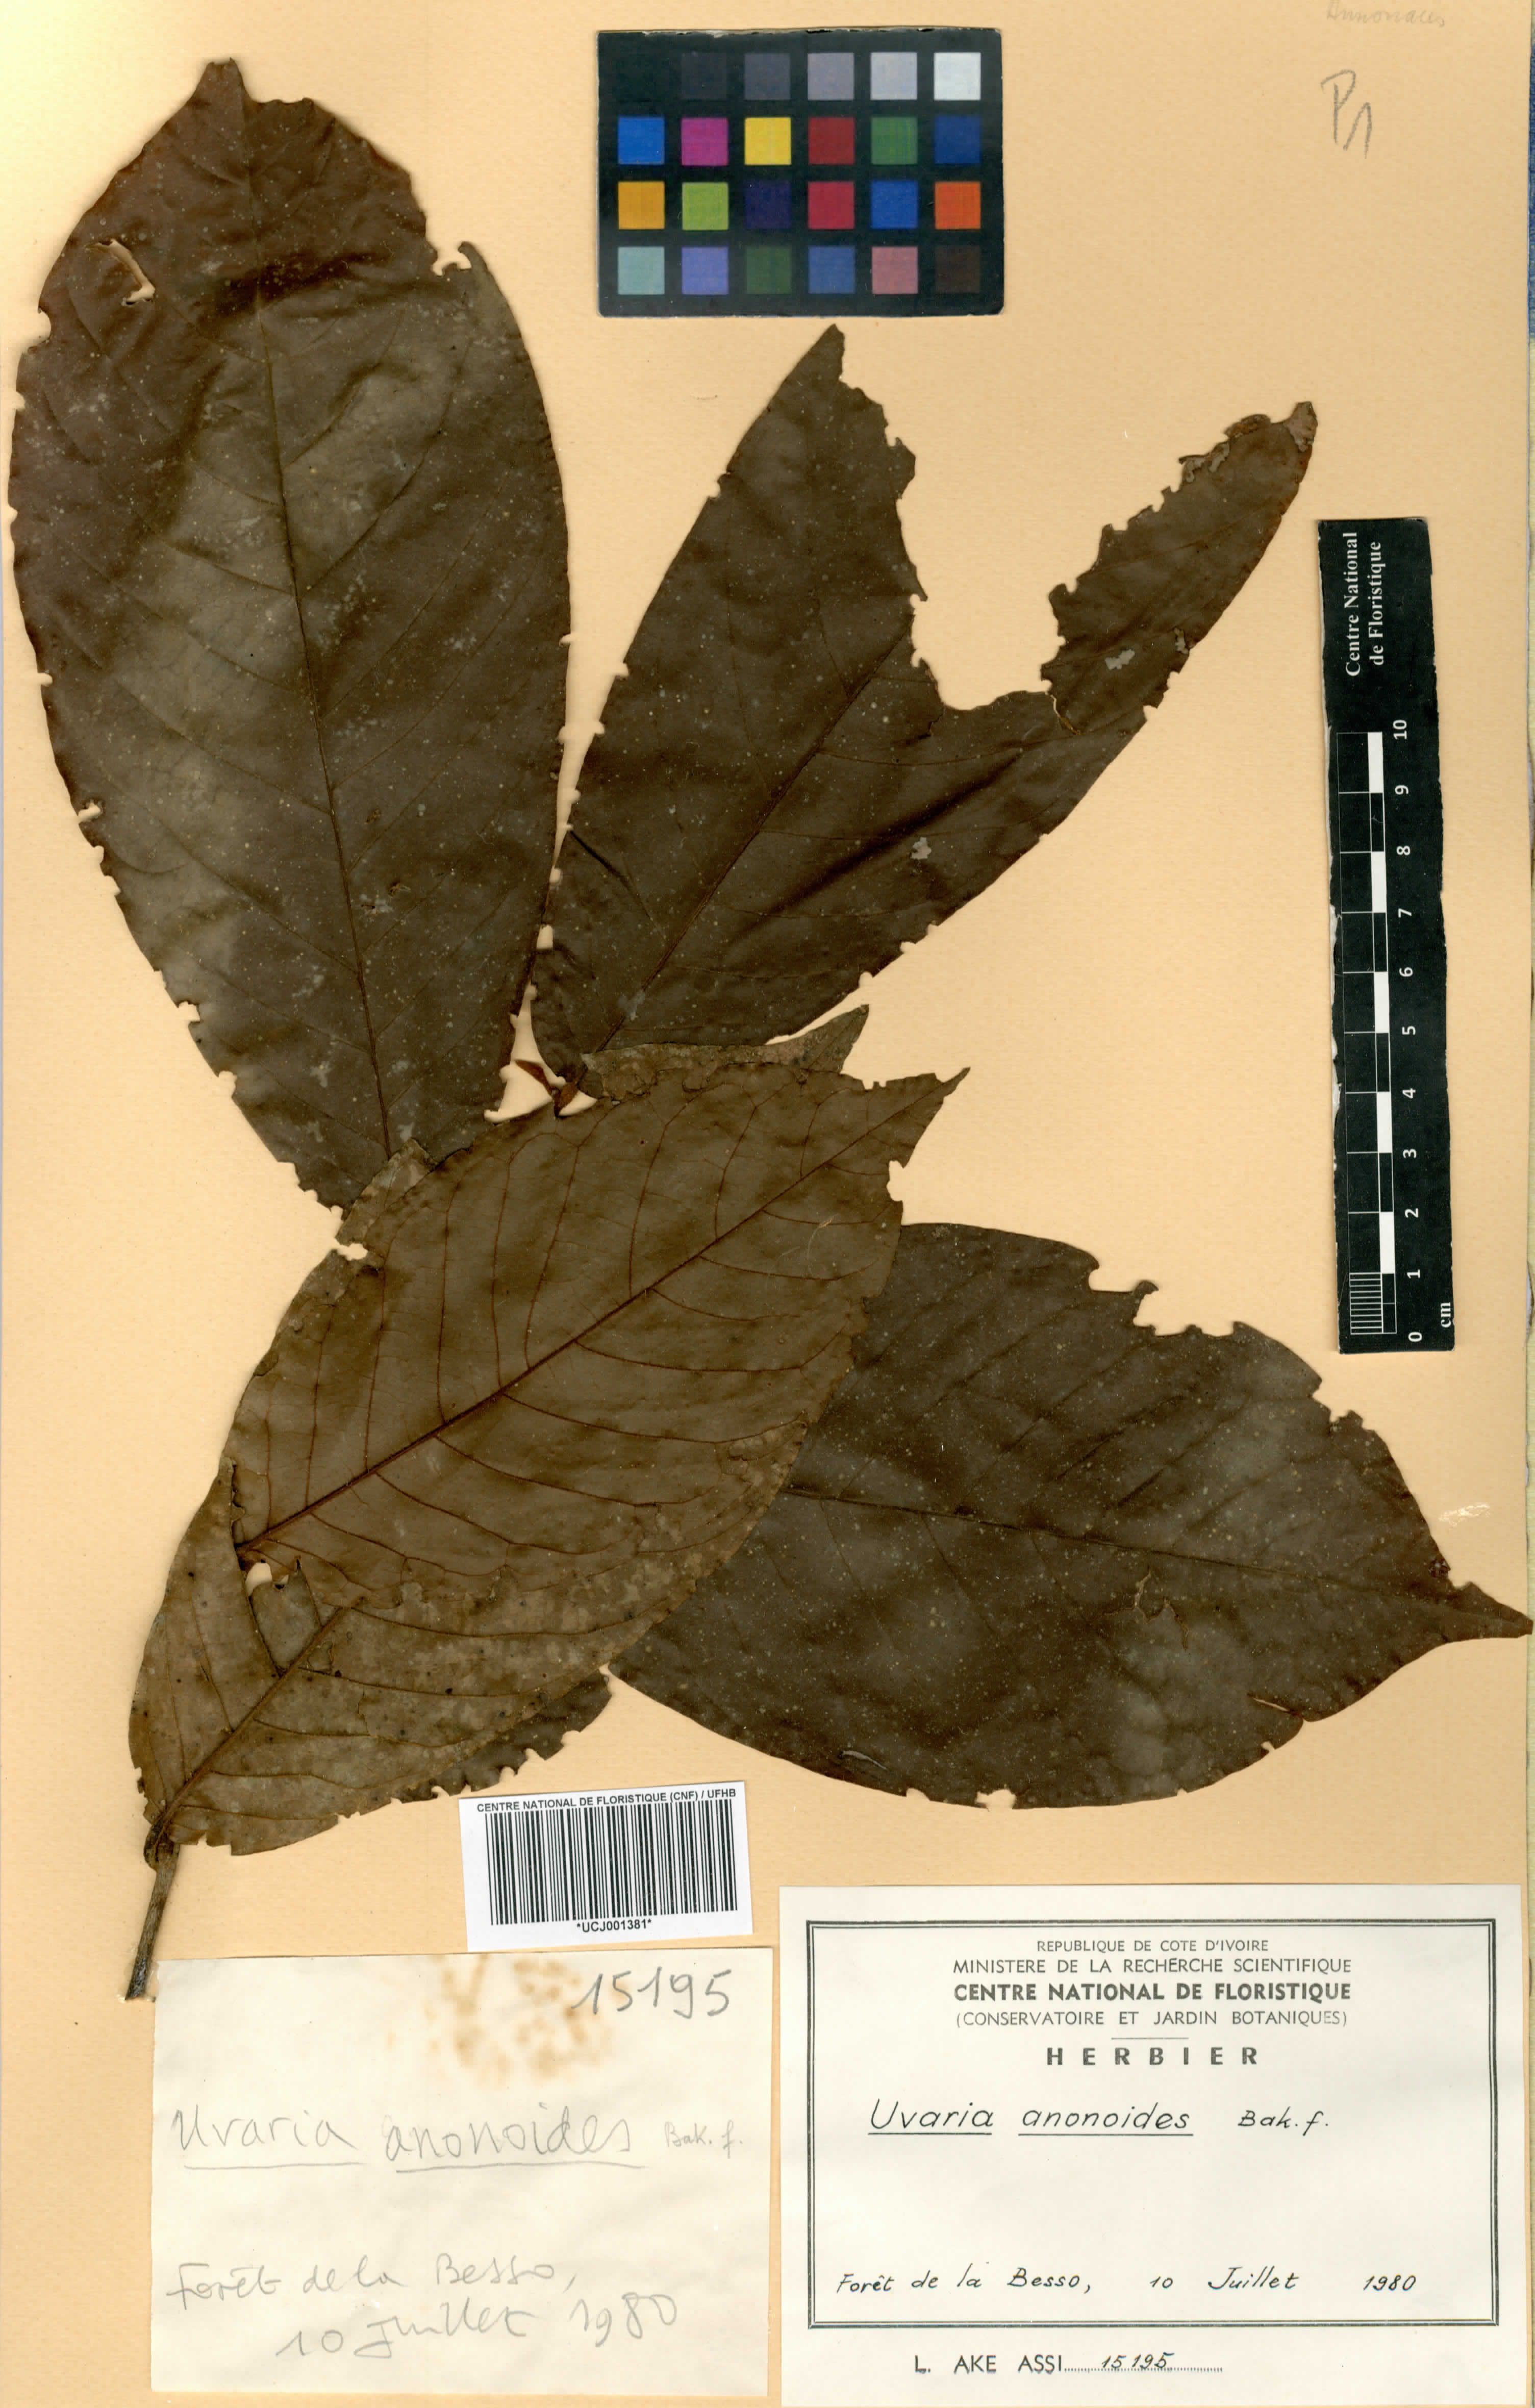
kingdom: Plantae
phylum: Tracheophyta
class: Magnoliopsida
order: Magnoliales
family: Annonaceae
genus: Uvaria
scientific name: Uvaria anonoides
